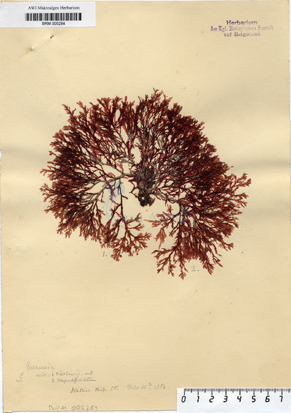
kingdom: Plantae
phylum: Rhodophyta
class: Florideophyceae
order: Ceramiales
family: Delesseriaceae
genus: Delesseria
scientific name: Delesseria
